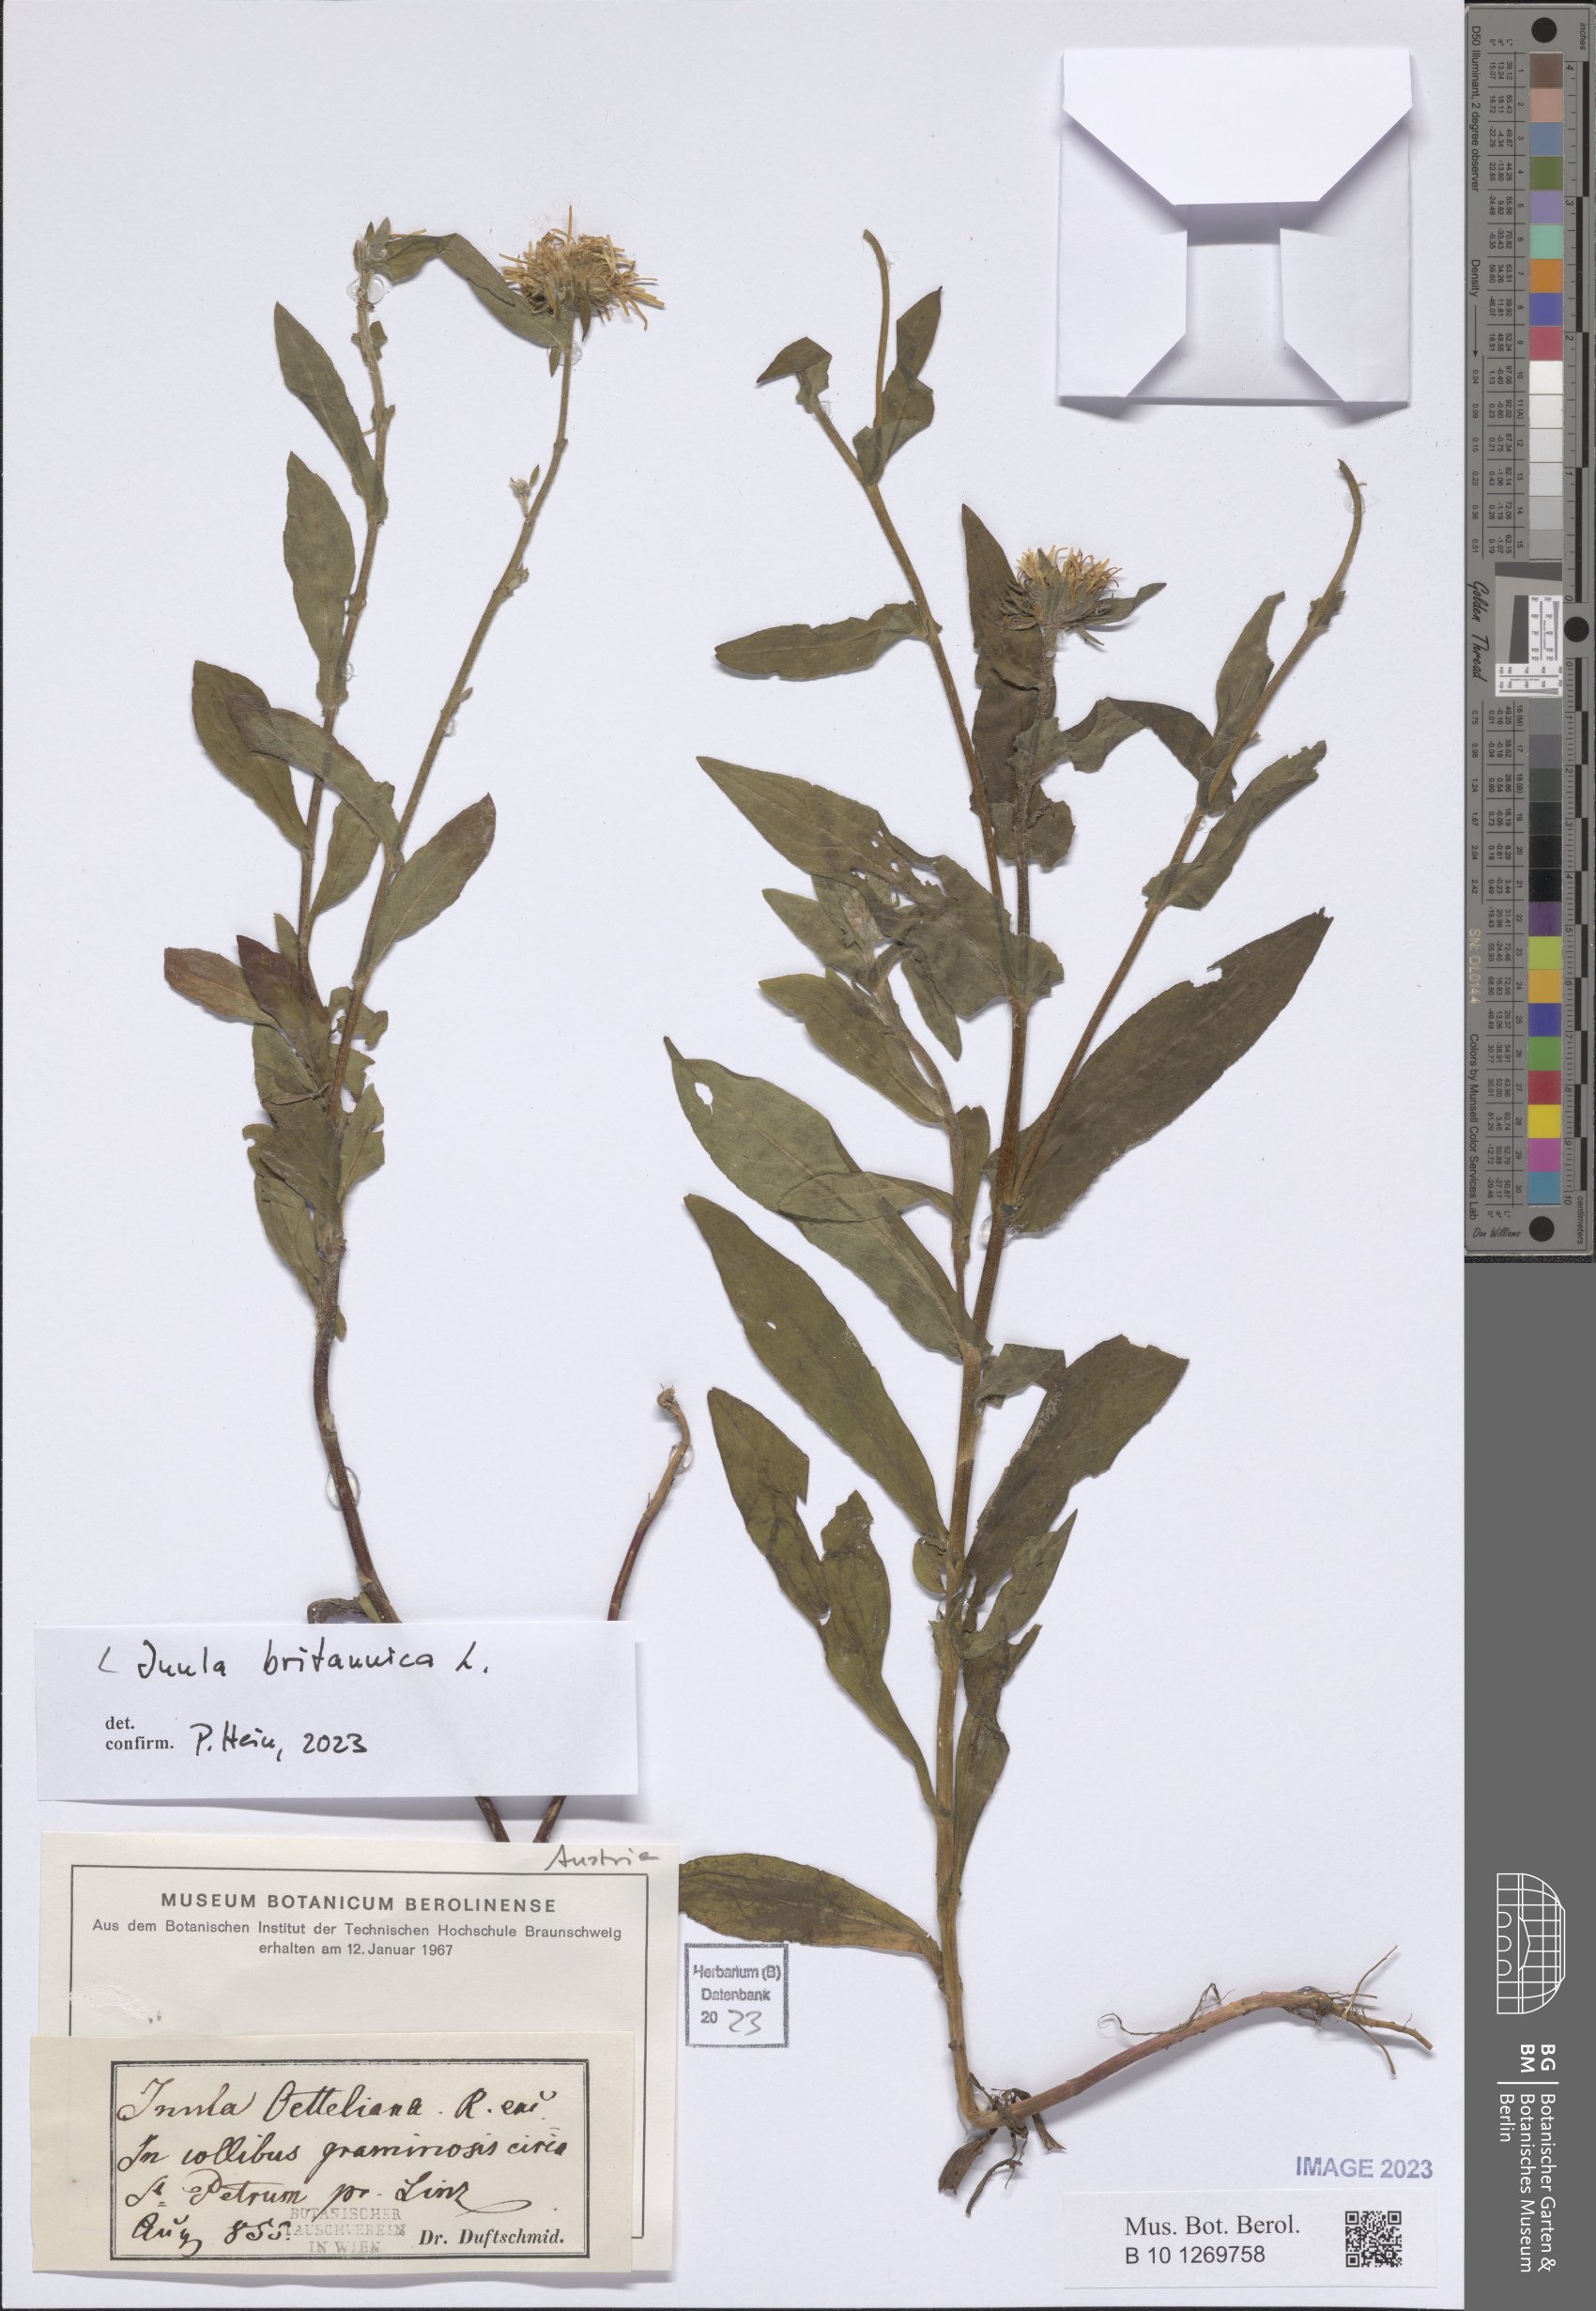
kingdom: Plantae
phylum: Tracheophyta
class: Magnoliopsida
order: Asterales
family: Asteraceae
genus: Pentanema
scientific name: Pentanema britannicum
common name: British elecampane
